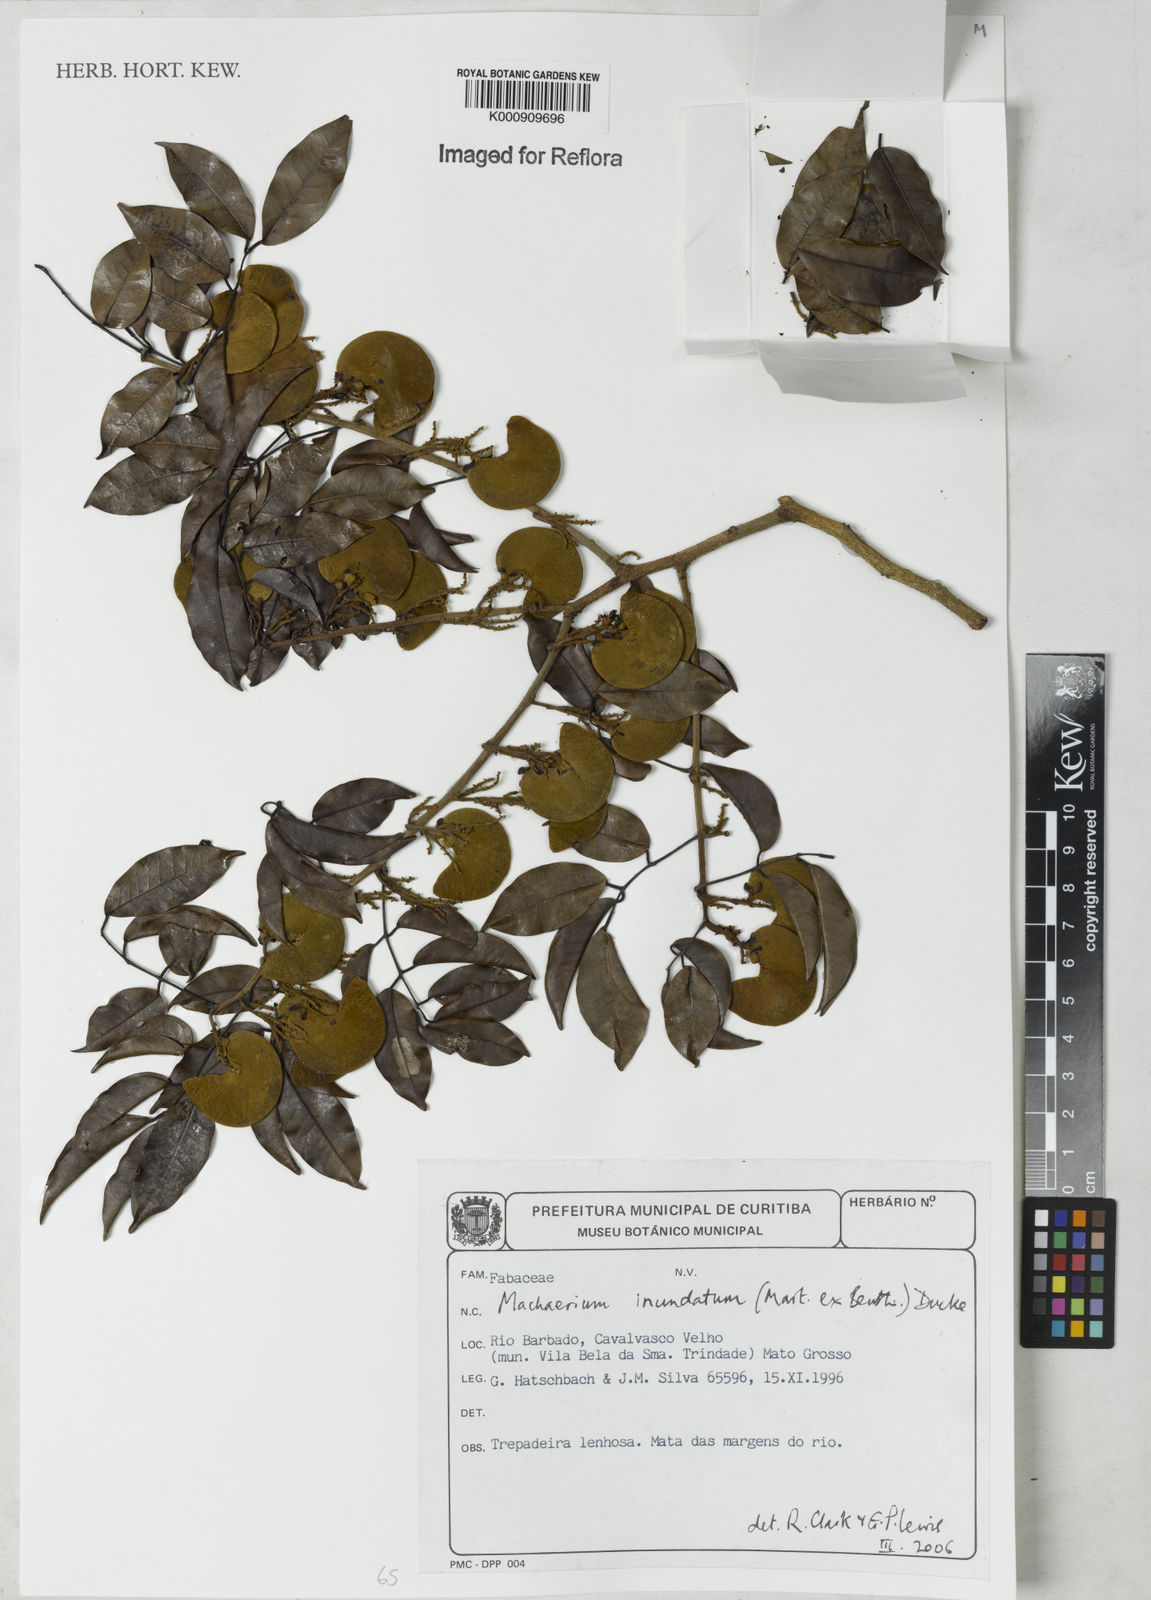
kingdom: Plantae
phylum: Tracheophyta
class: Magnoliopsida
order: Fabales
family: Fabaceae
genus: Machaerium
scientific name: Machaerium inundatum
